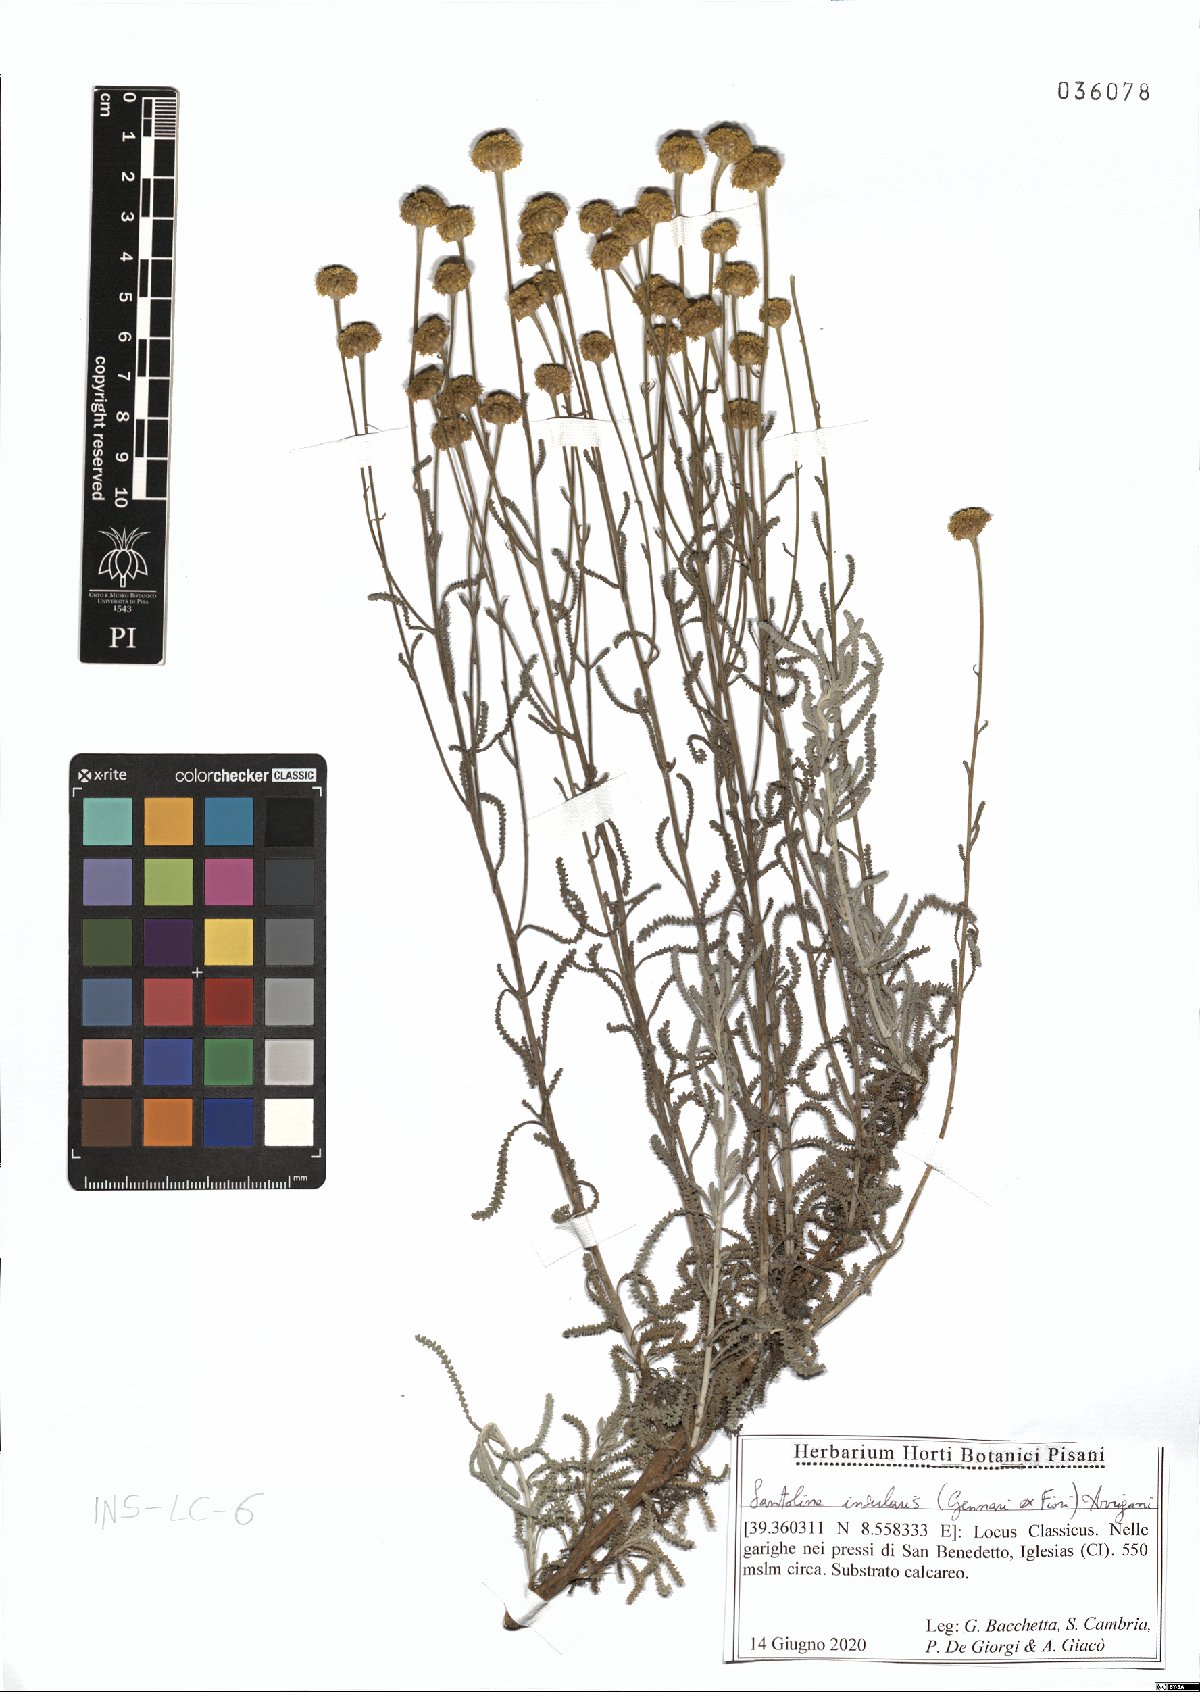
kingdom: Plantae
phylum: Tracheophyta
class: Magnoliopsida
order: Asterales
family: Asteraceae
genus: Santolina
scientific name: Santolina insularis
